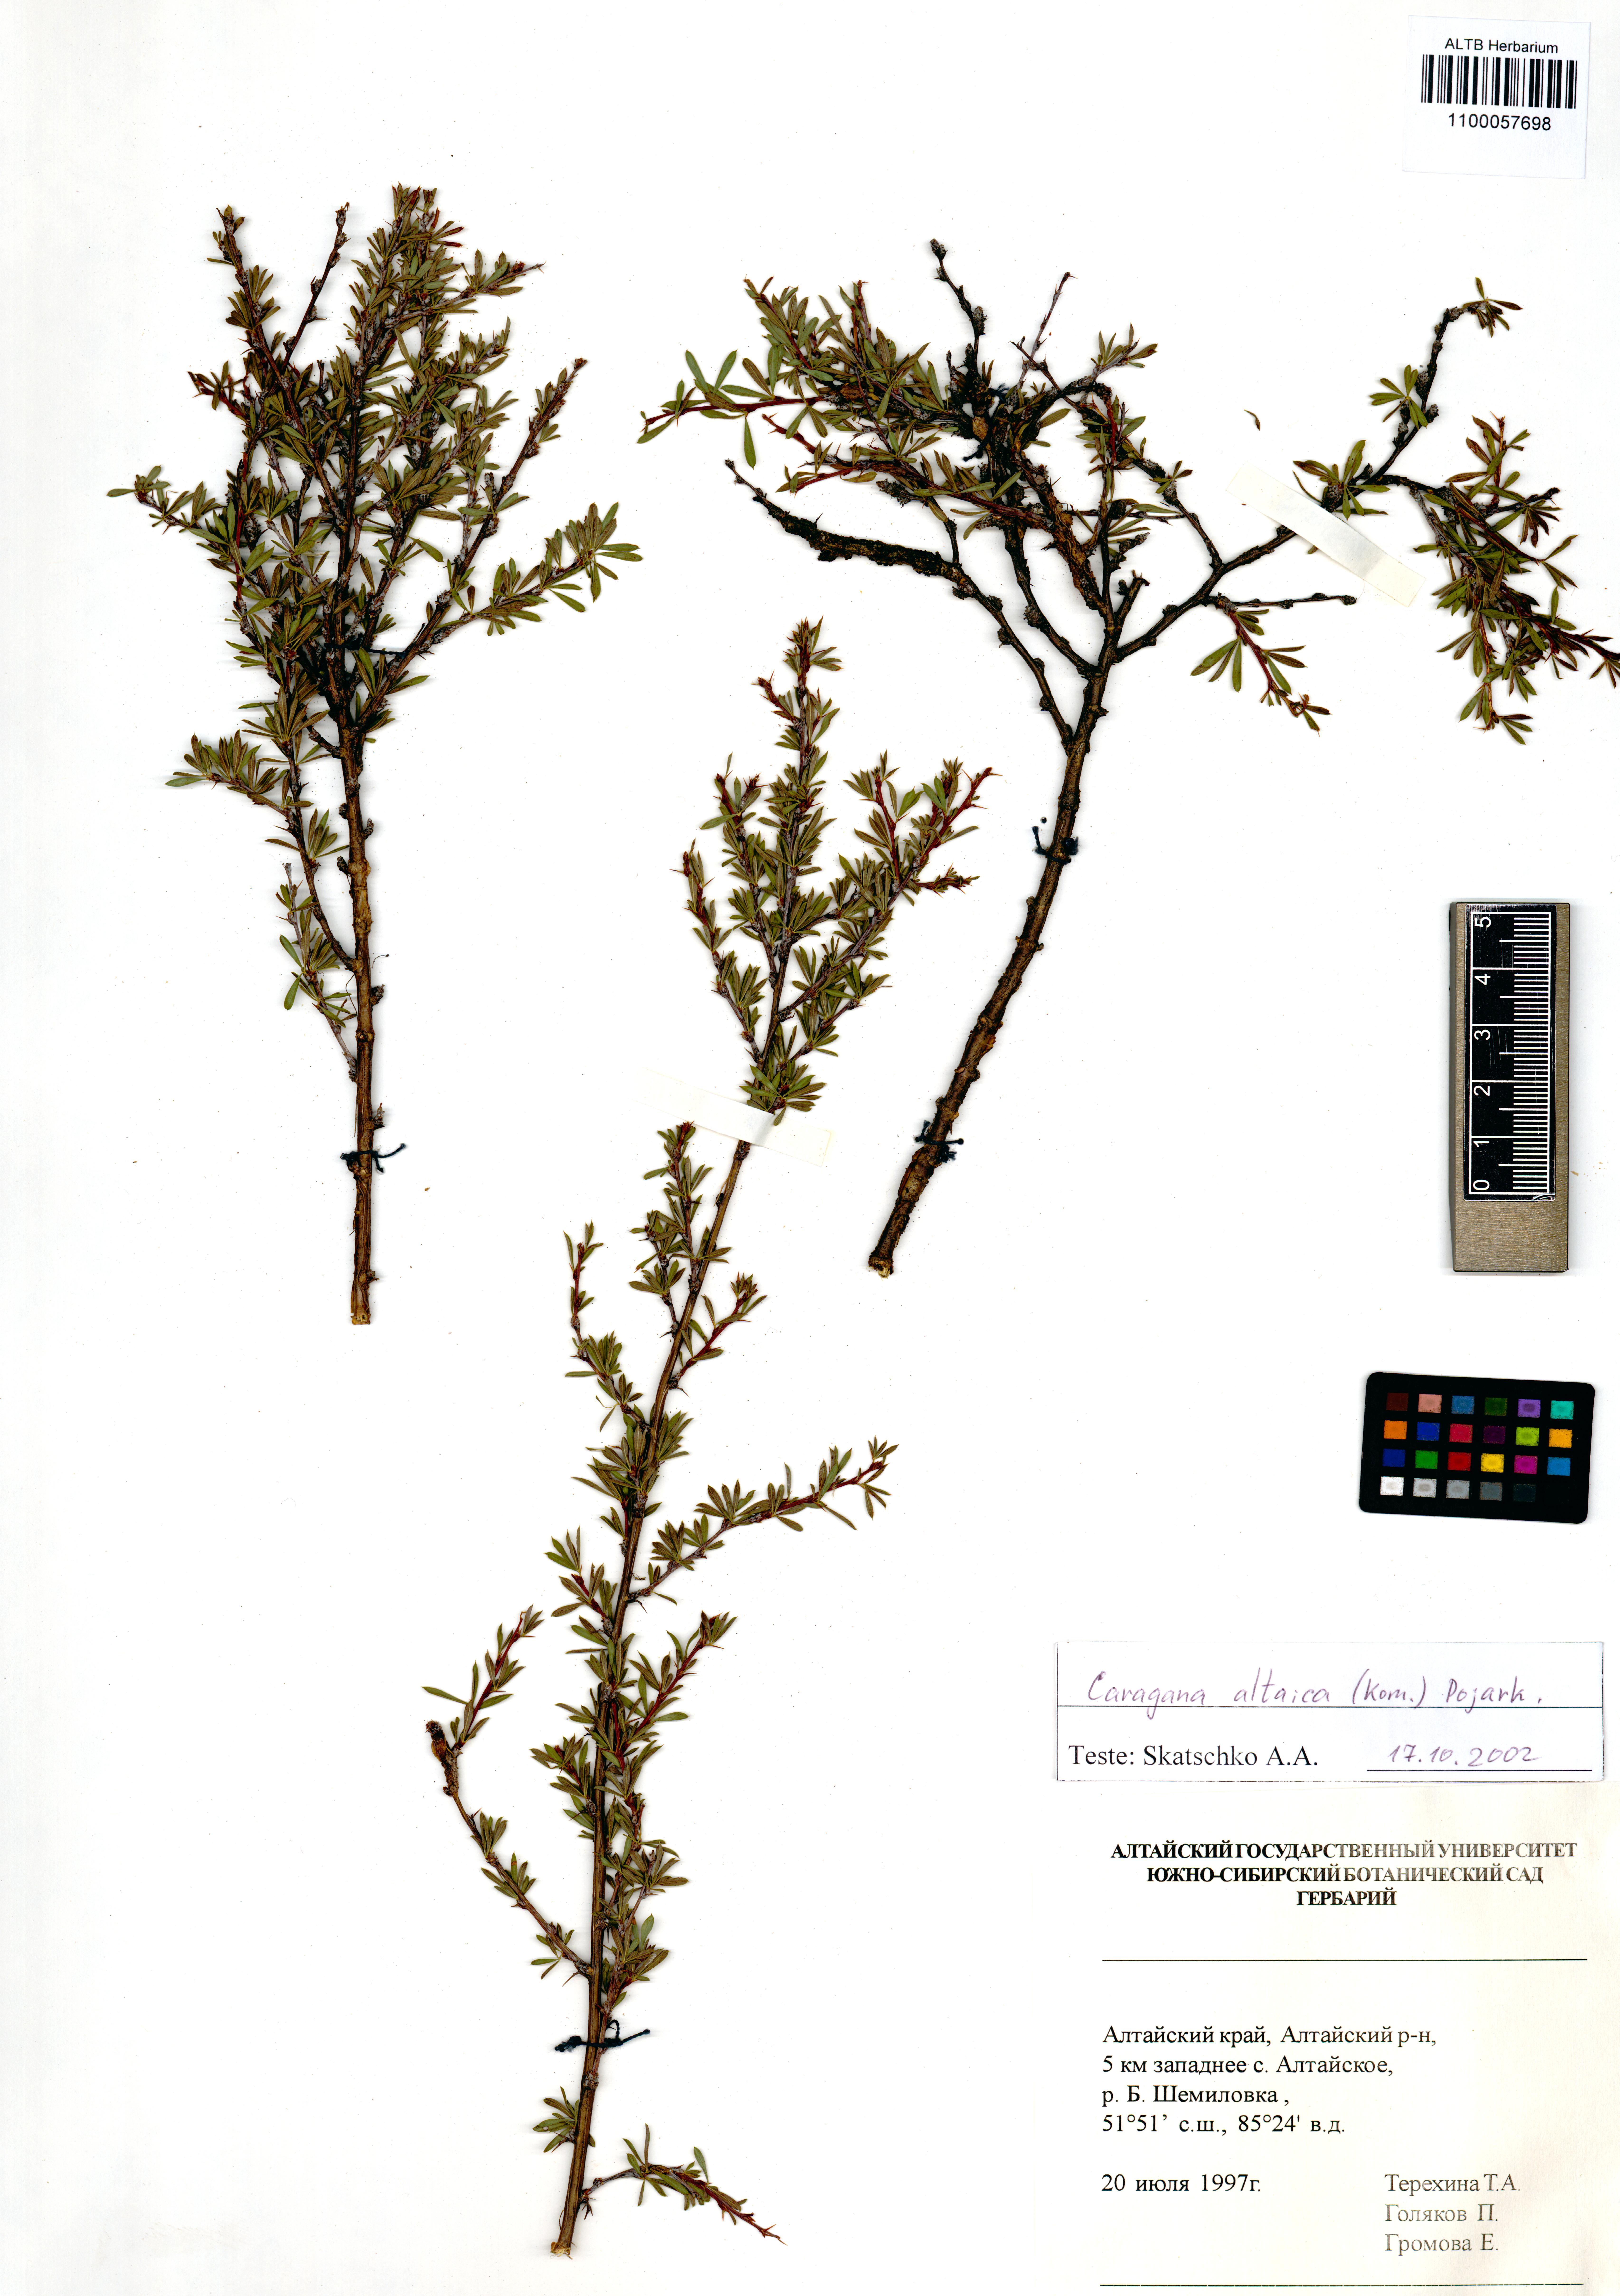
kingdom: Plantae
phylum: Tracheophyta
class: Magnoliopsida
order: Fabales
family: Fabaceae
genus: Caragana
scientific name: Caragana pygmaea
